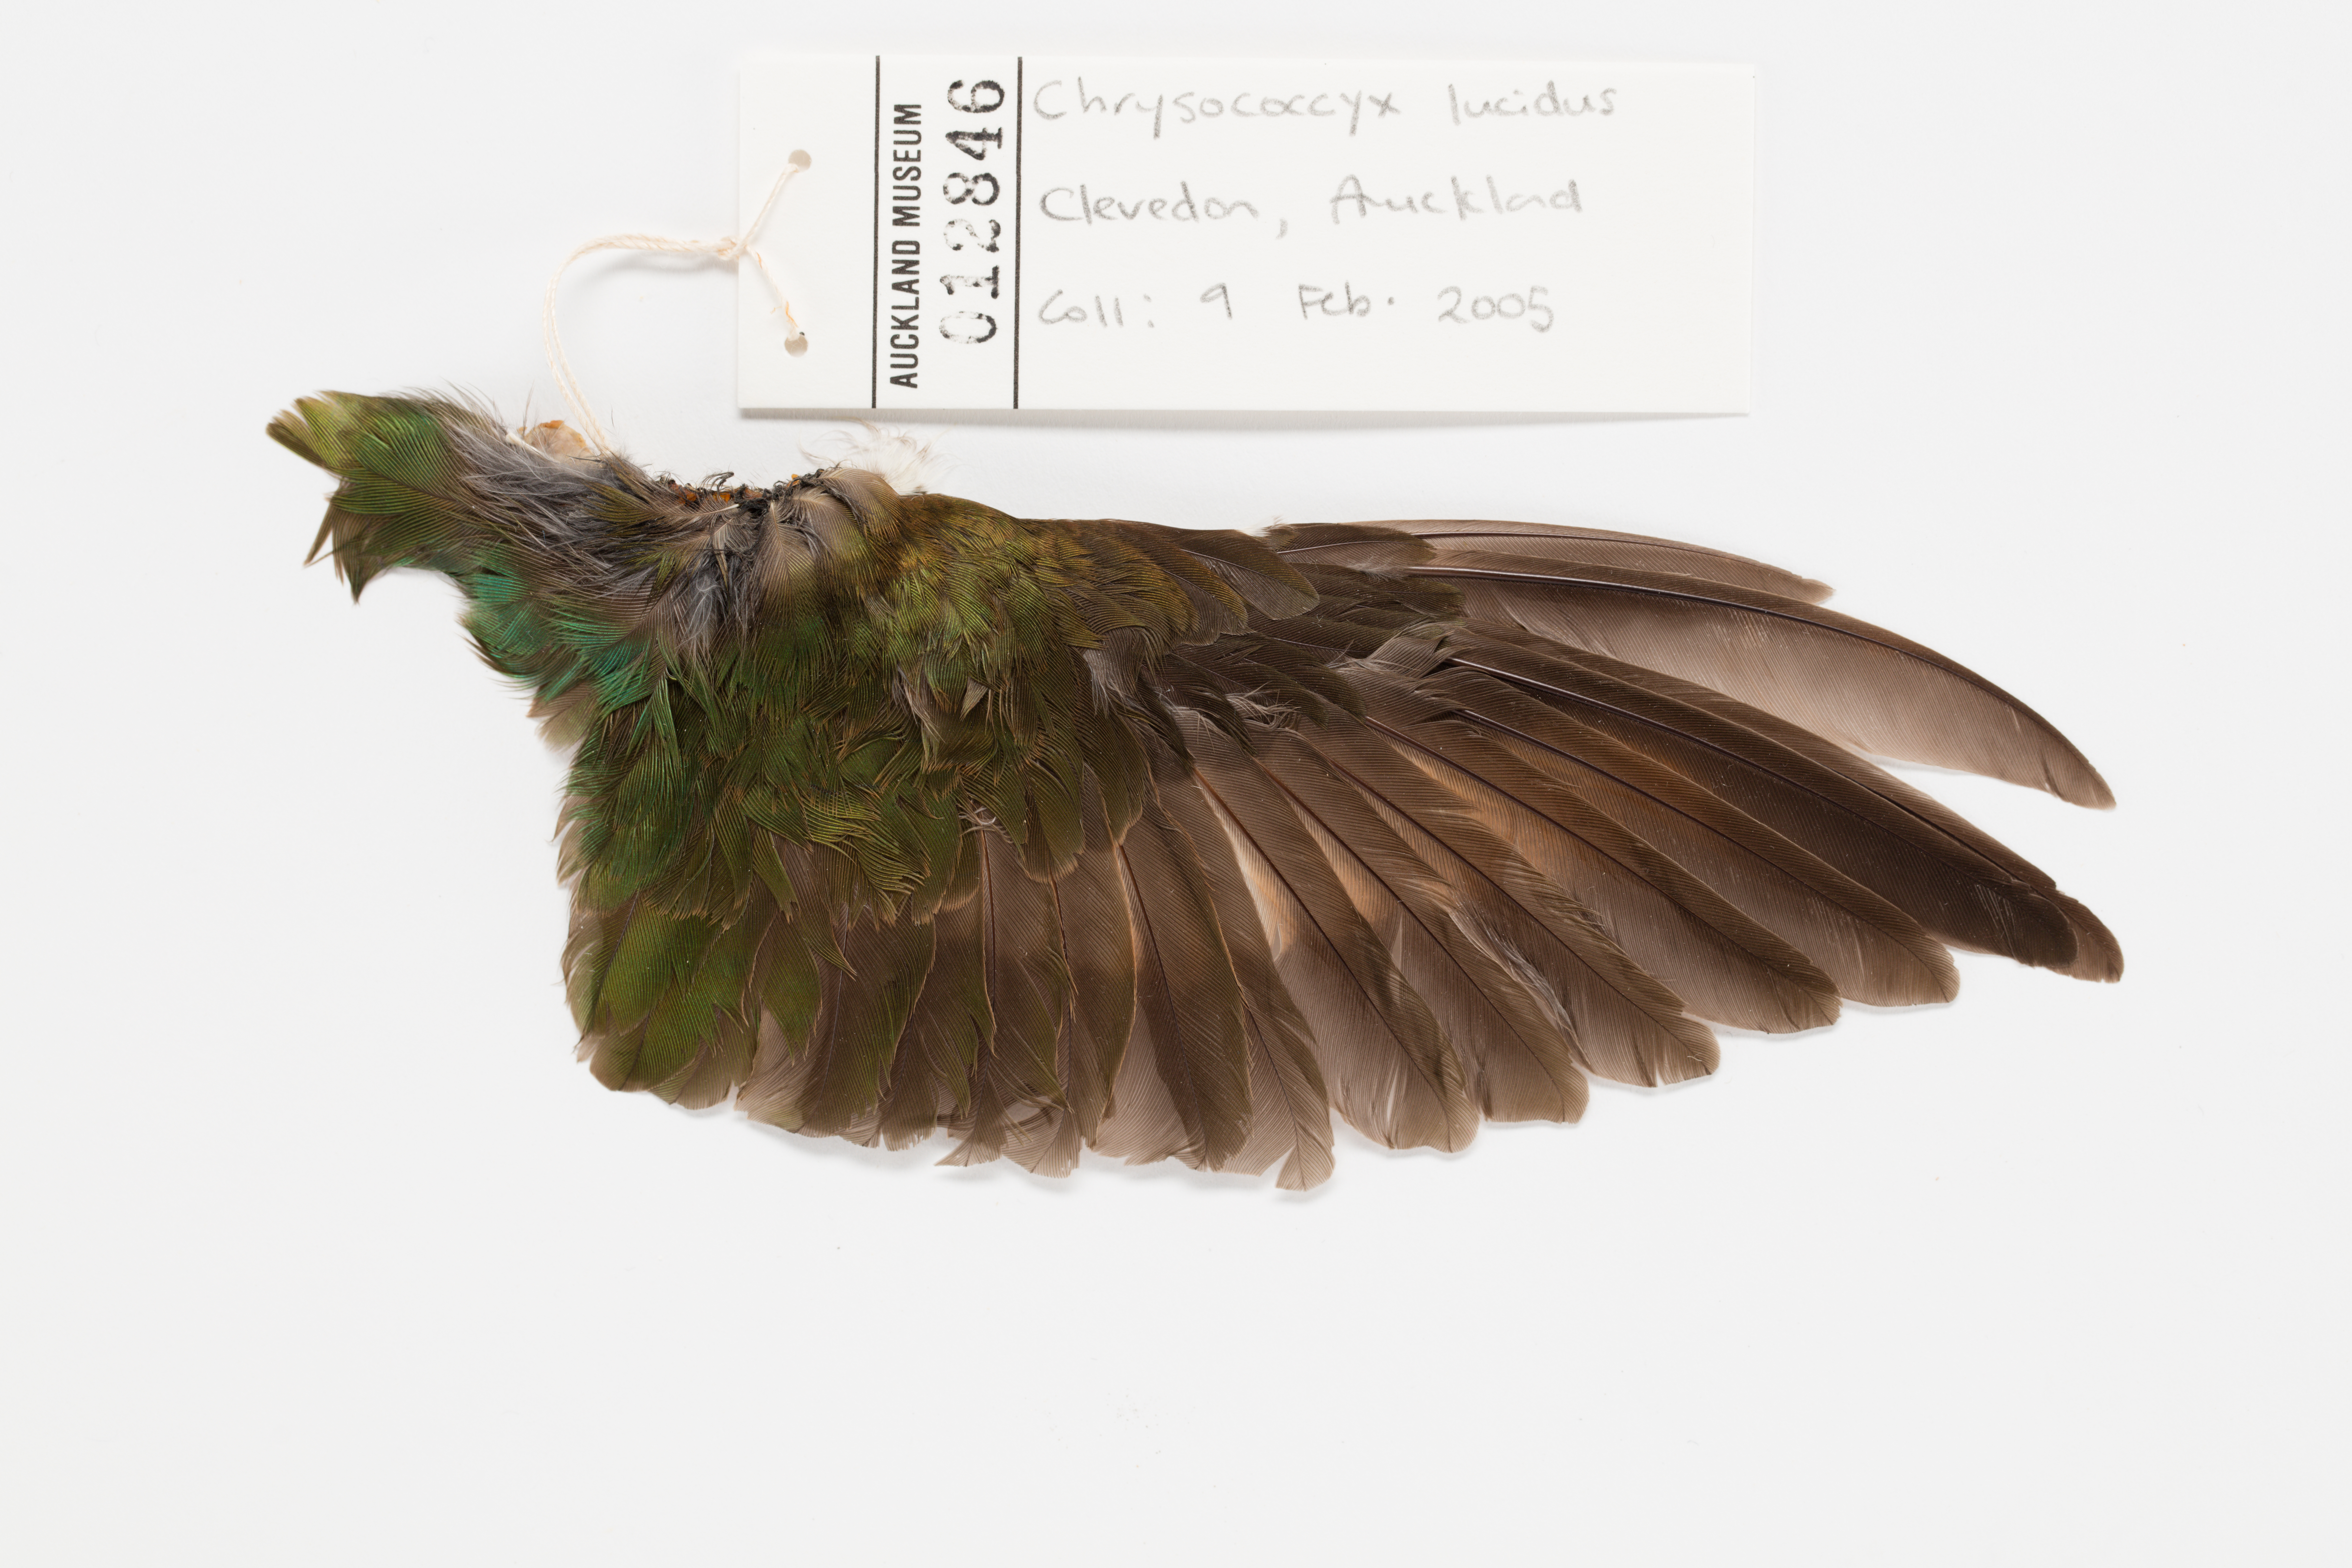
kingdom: Animalia
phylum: Chordata
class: Aves
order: Cuculiformes
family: Cuculidae
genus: Chrysococcyx
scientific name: Chrysococcyx lucidus
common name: Shining bronze cuckoo
